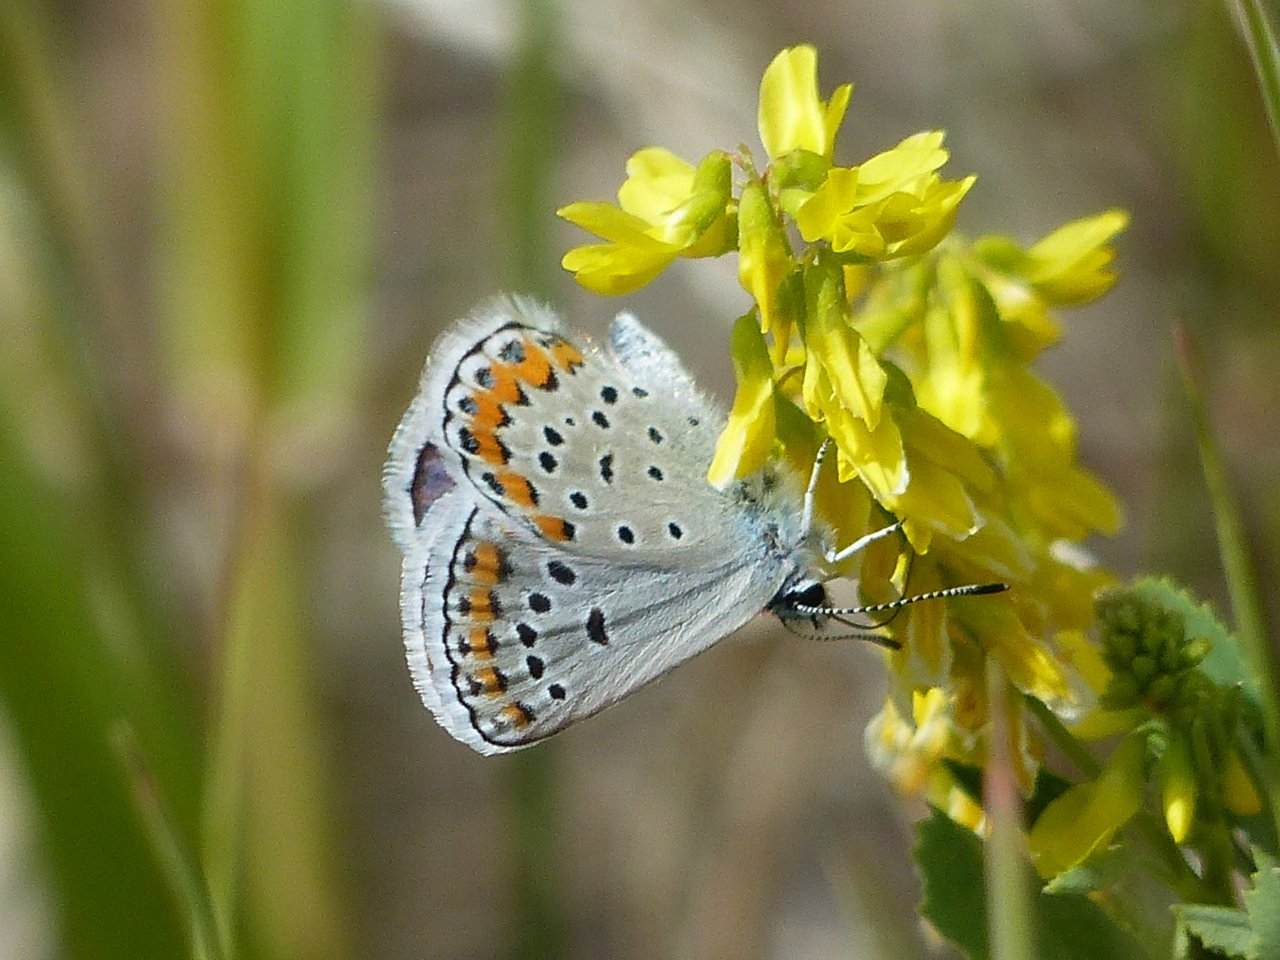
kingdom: Animalia
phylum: Arthropoda
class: Insecta
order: Lepidoptera
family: Lycaenidae
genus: Lycaeides
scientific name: Lycaeides melissa
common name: Melissa Blue
